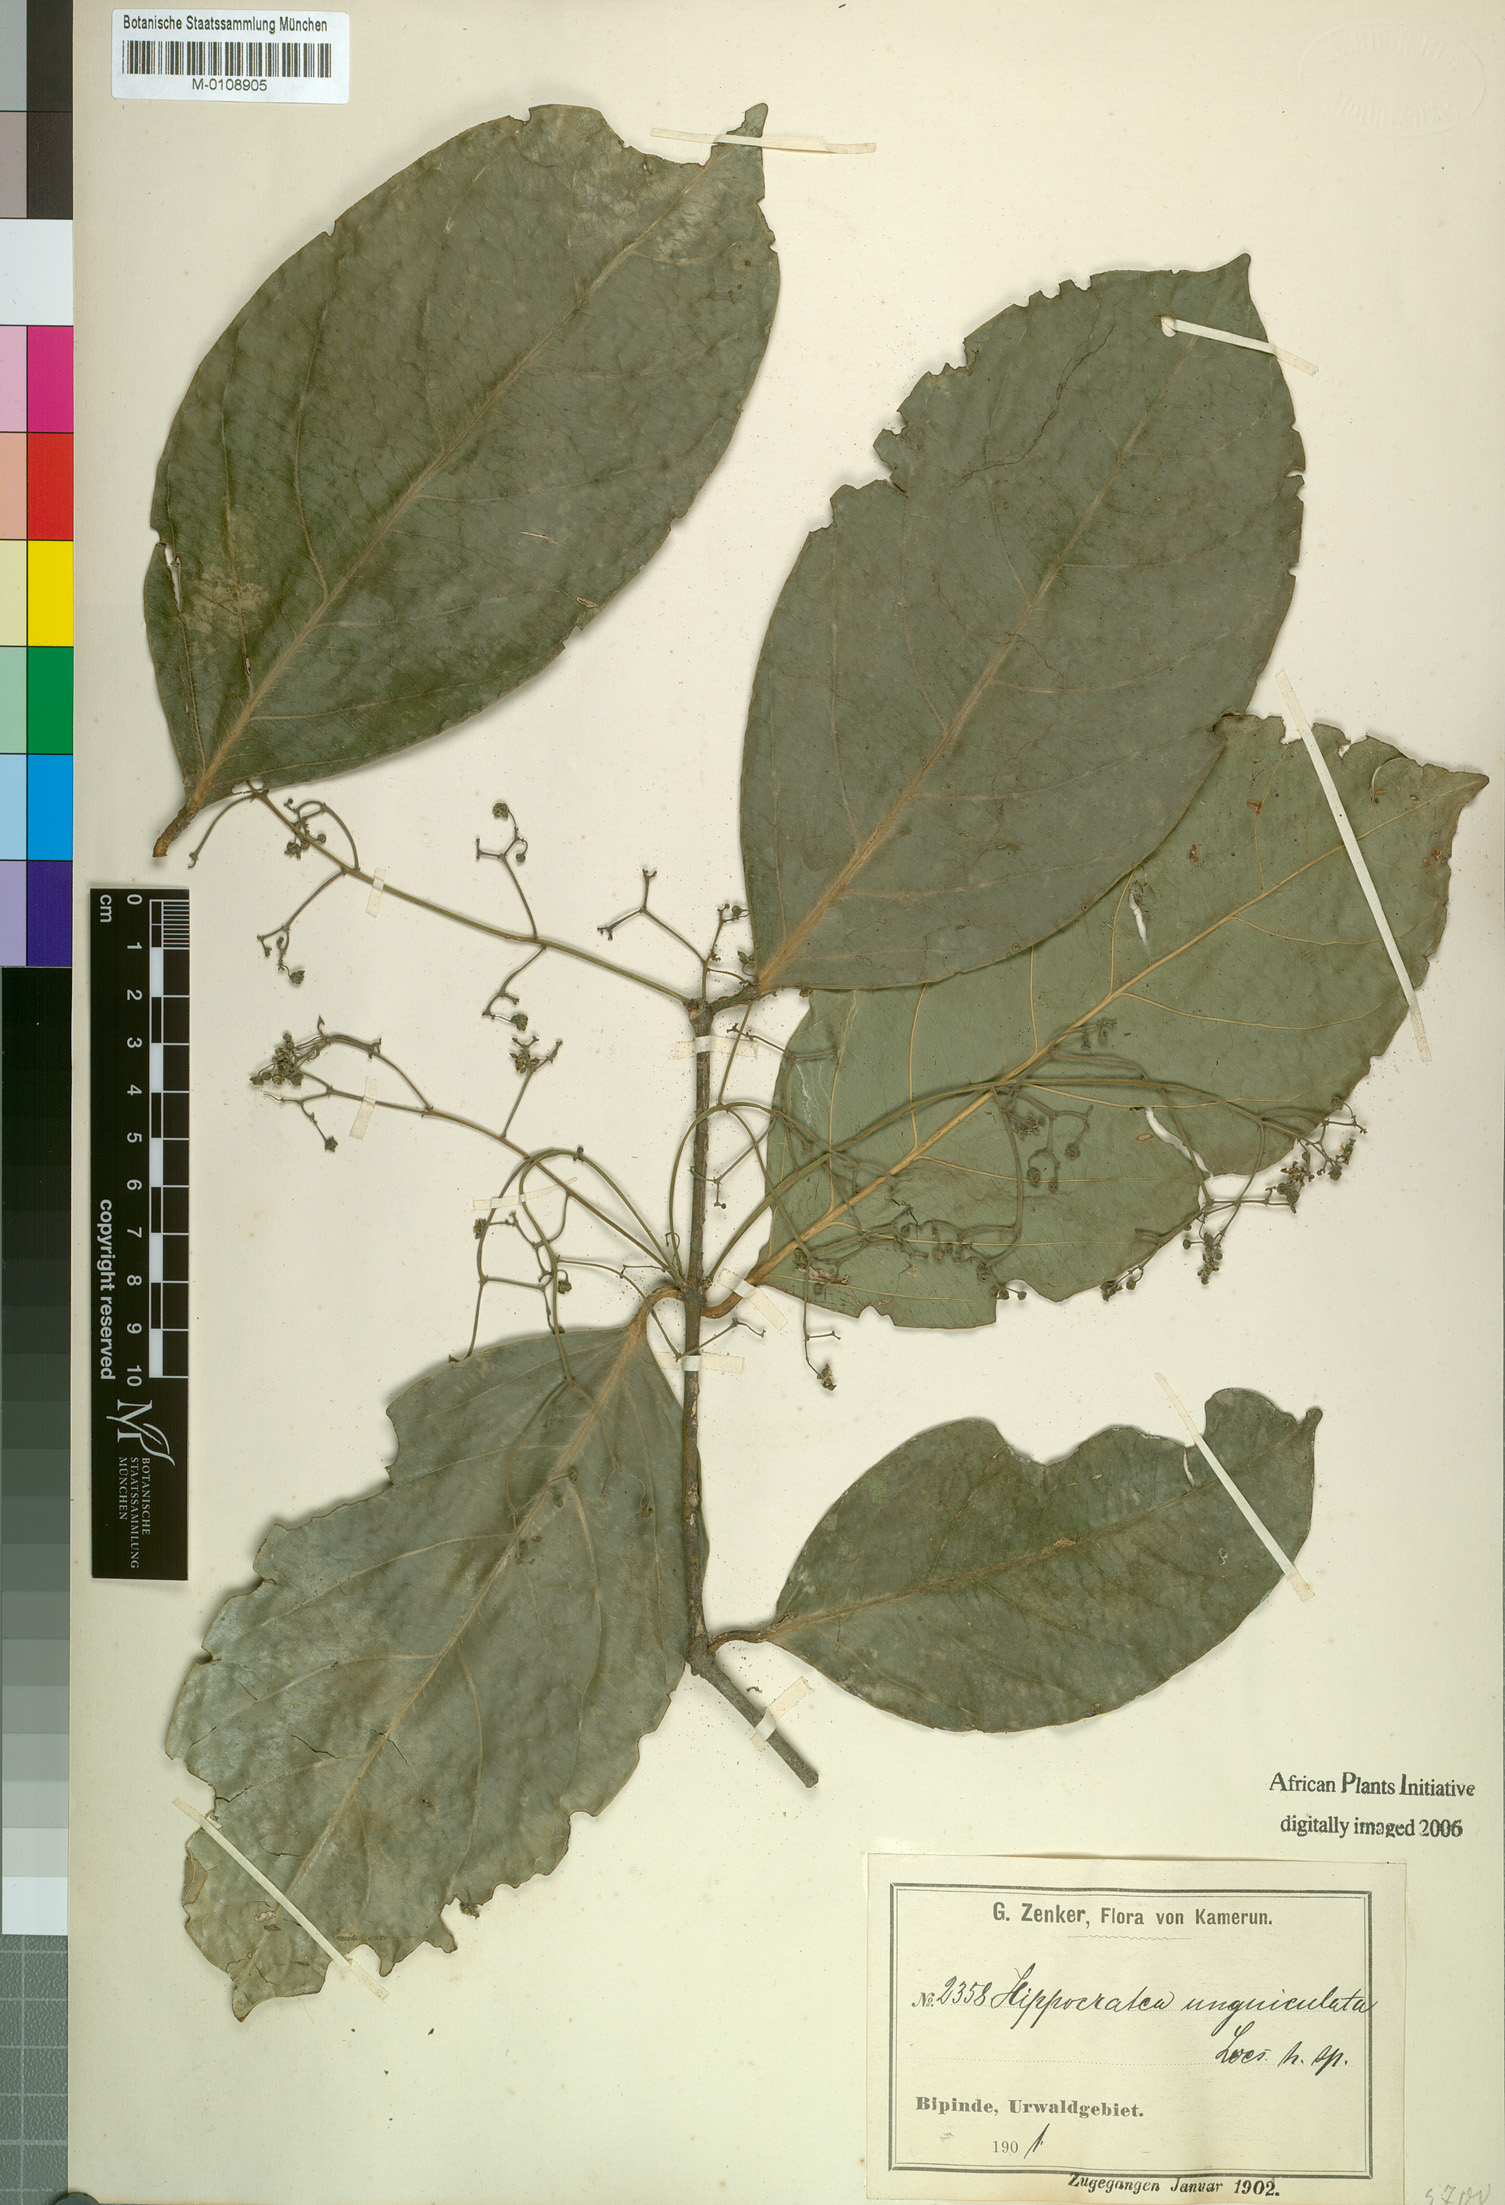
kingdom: Plantae
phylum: Tracheophyta
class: Magnoliopsida
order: Celastrales
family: Celastraceae
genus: Pristimera
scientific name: Pristimera unguiculata
